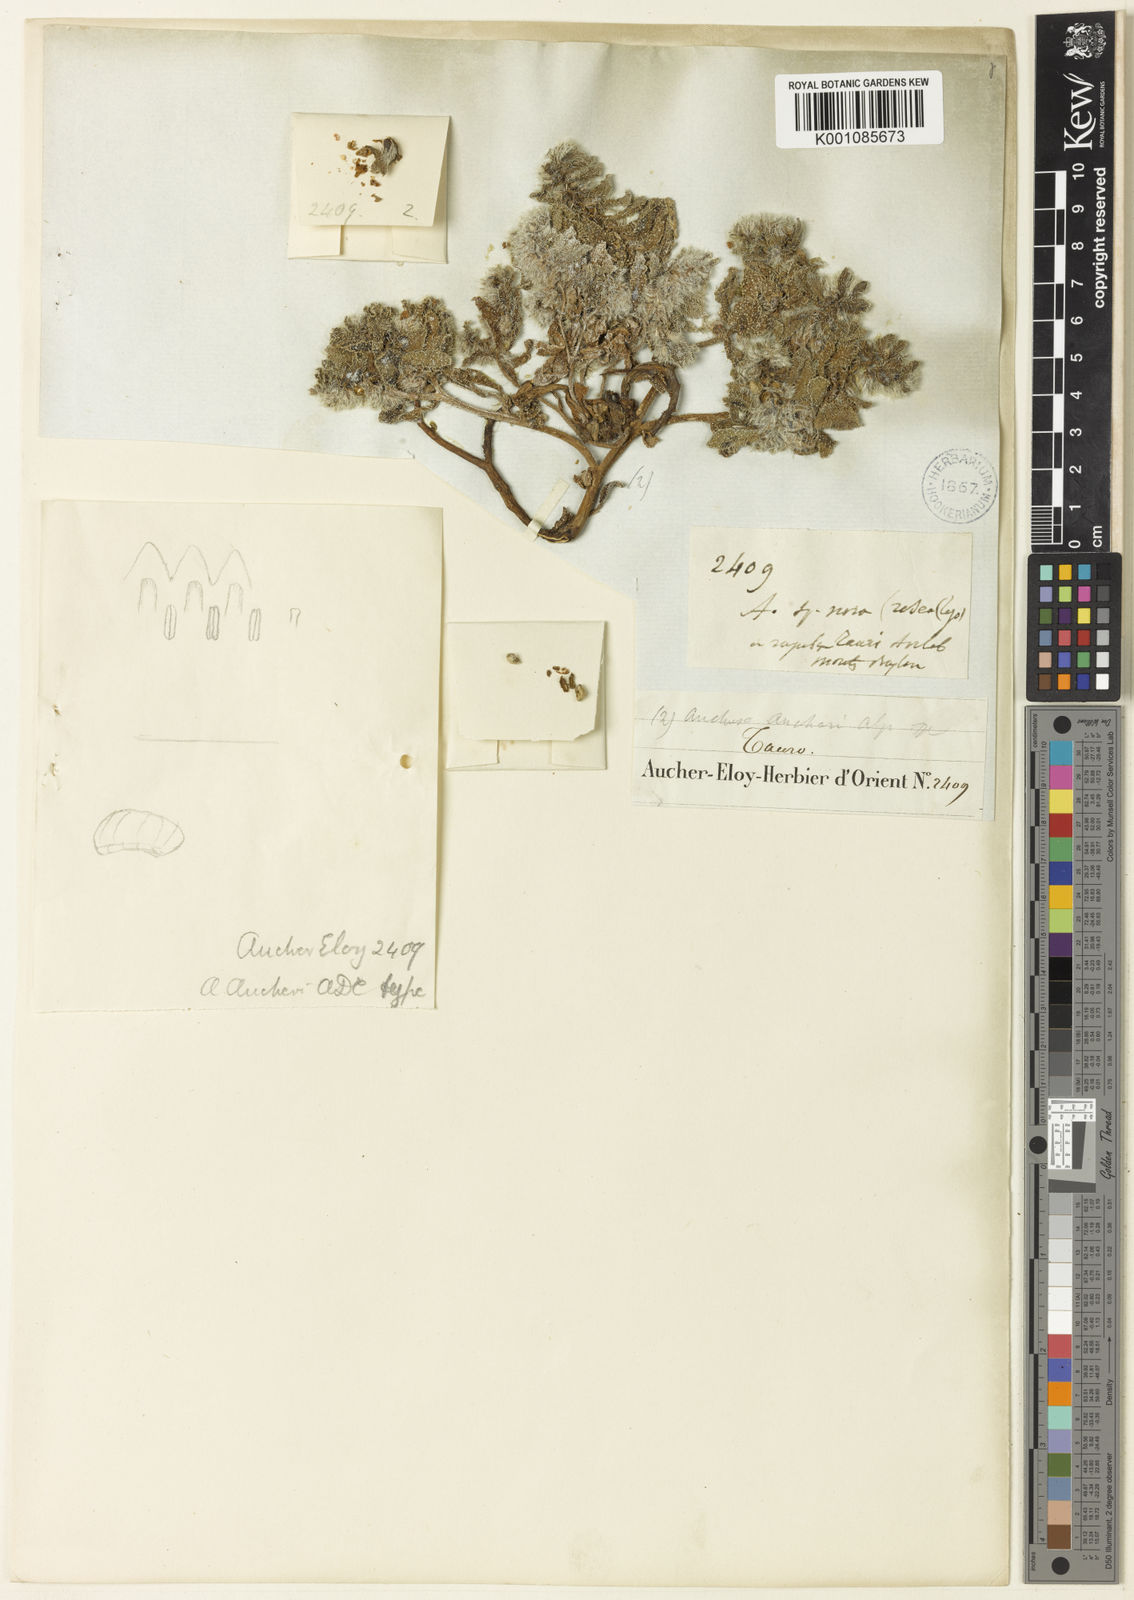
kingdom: Plantae
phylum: Tracheophyta
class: Magnoliopsida
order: Boraginales
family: Boraginaceae
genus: Phyllocara
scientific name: Phyllocara aucheri
